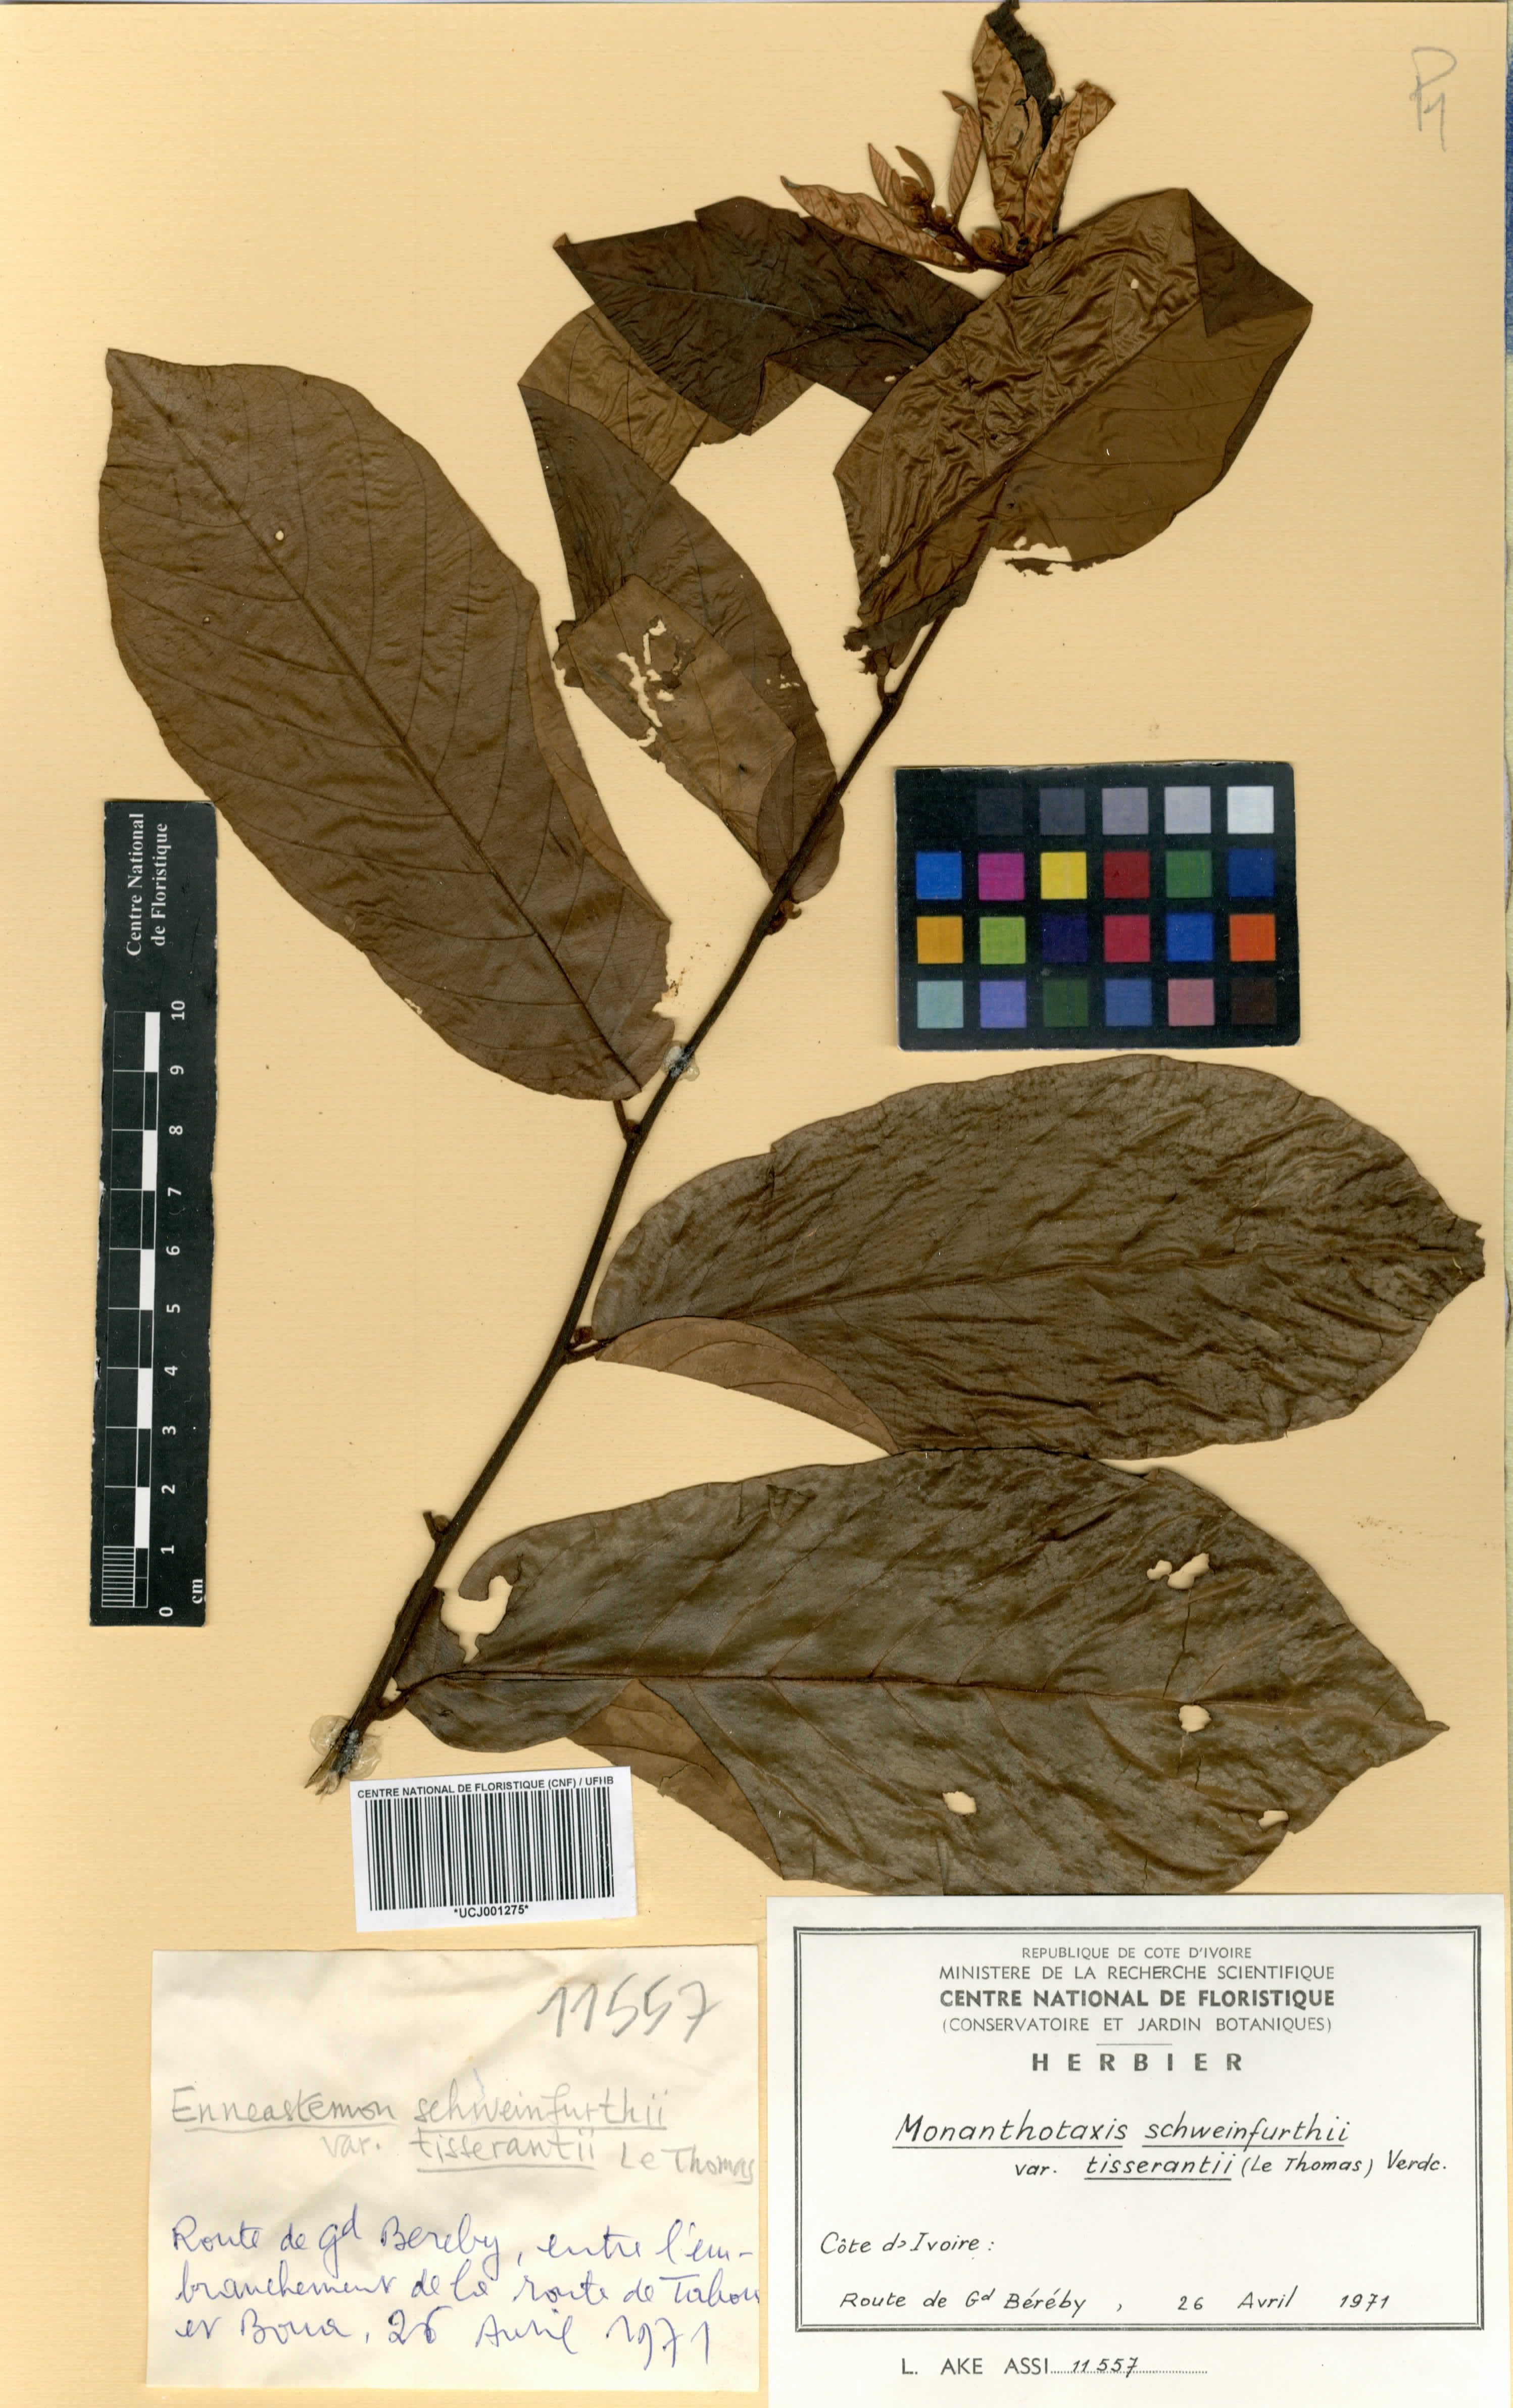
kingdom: Plantae
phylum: Tracheophyta
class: Magnoliopsida
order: Magnoliales
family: Annonaceae
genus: Monanthotaxis
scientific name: Monanthotaxis schweinfurthii
